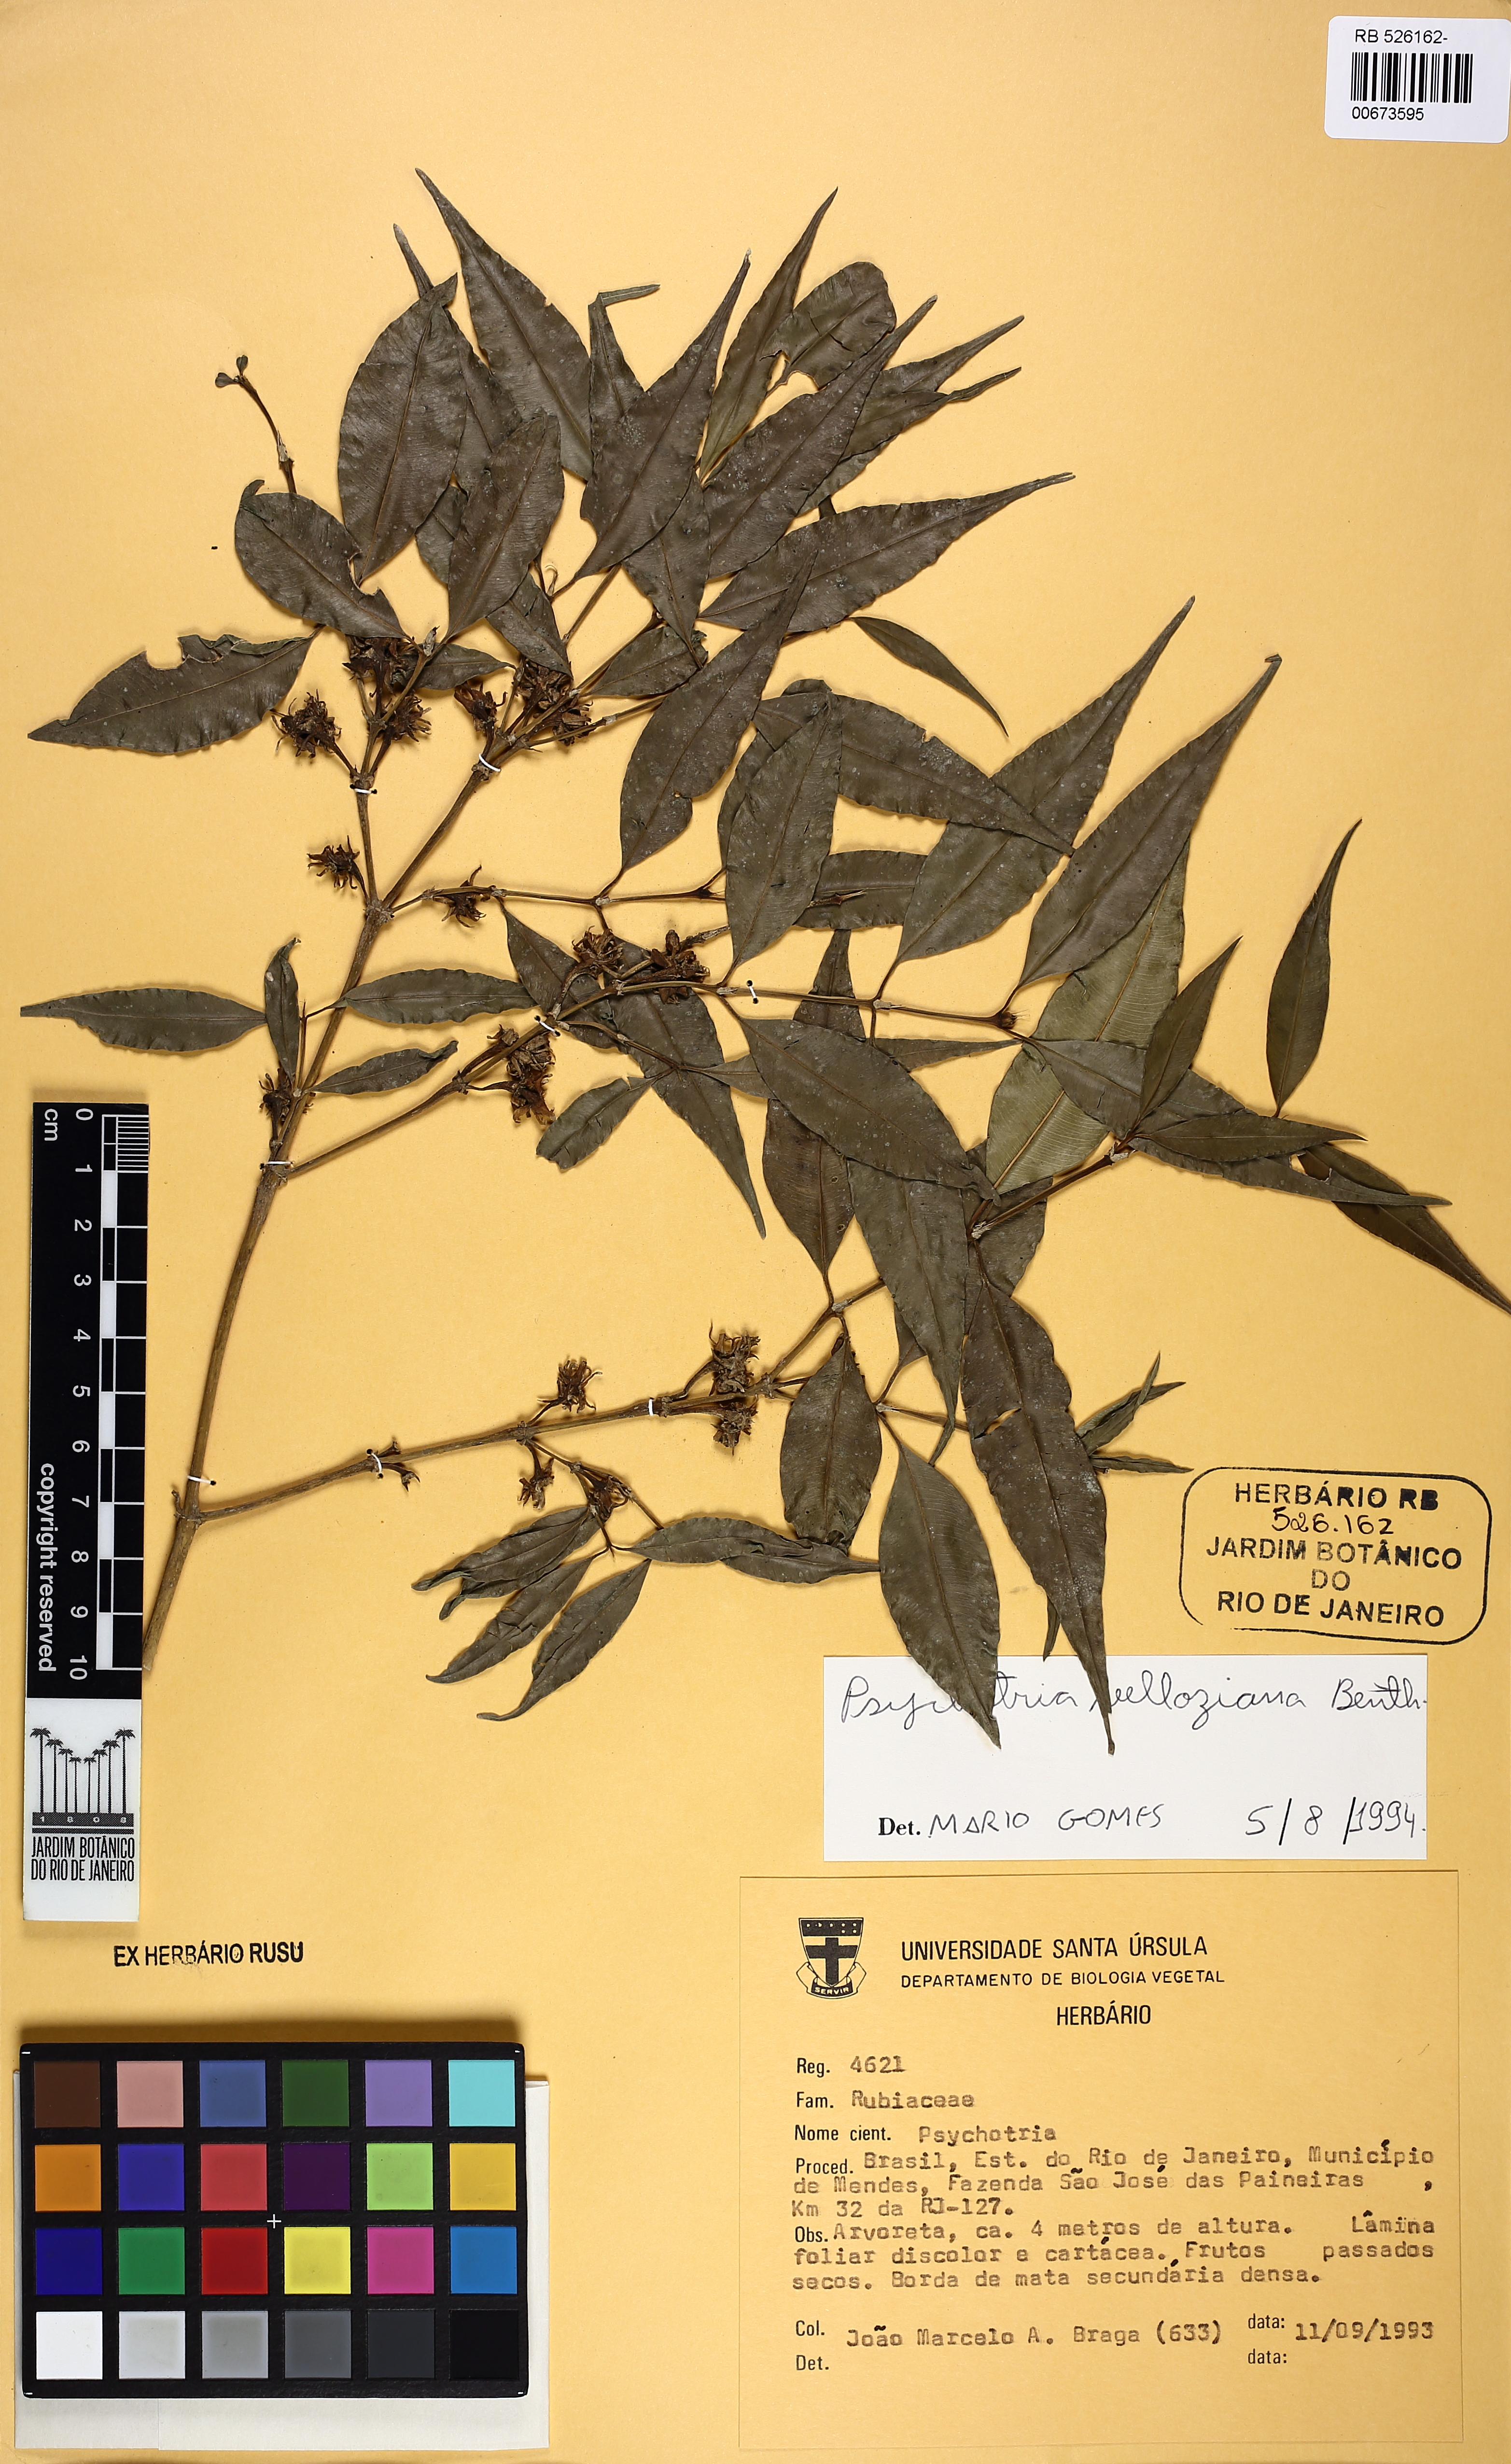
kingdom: Plantae
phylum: Tracheophyta
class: Magnoliopsida
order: Gentianales
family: Rubiaceae
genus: Palicourea
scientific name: Palicourea sessilis
